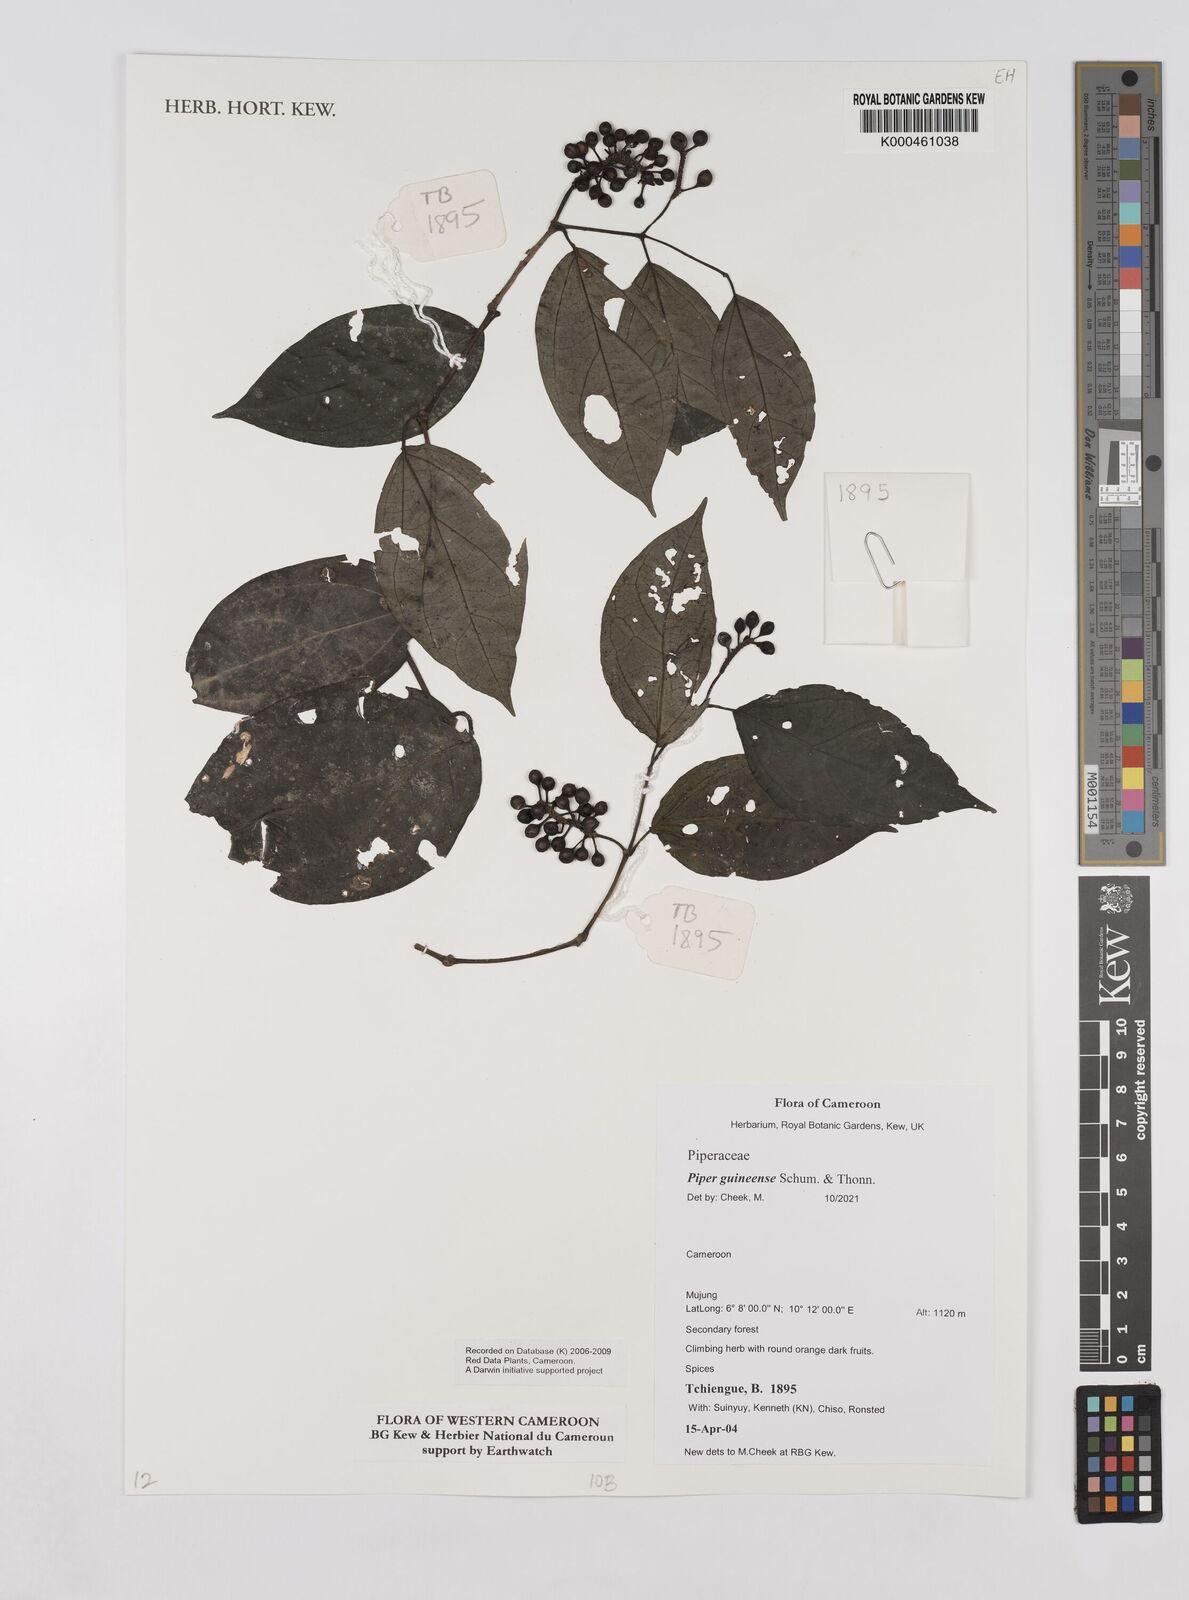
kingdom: Plantae
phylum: Tracheophyta
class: Magnoliopsida
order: Piperales
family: Piperaceae
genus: Piper
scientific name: Piper guineense
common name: Benin pepper
